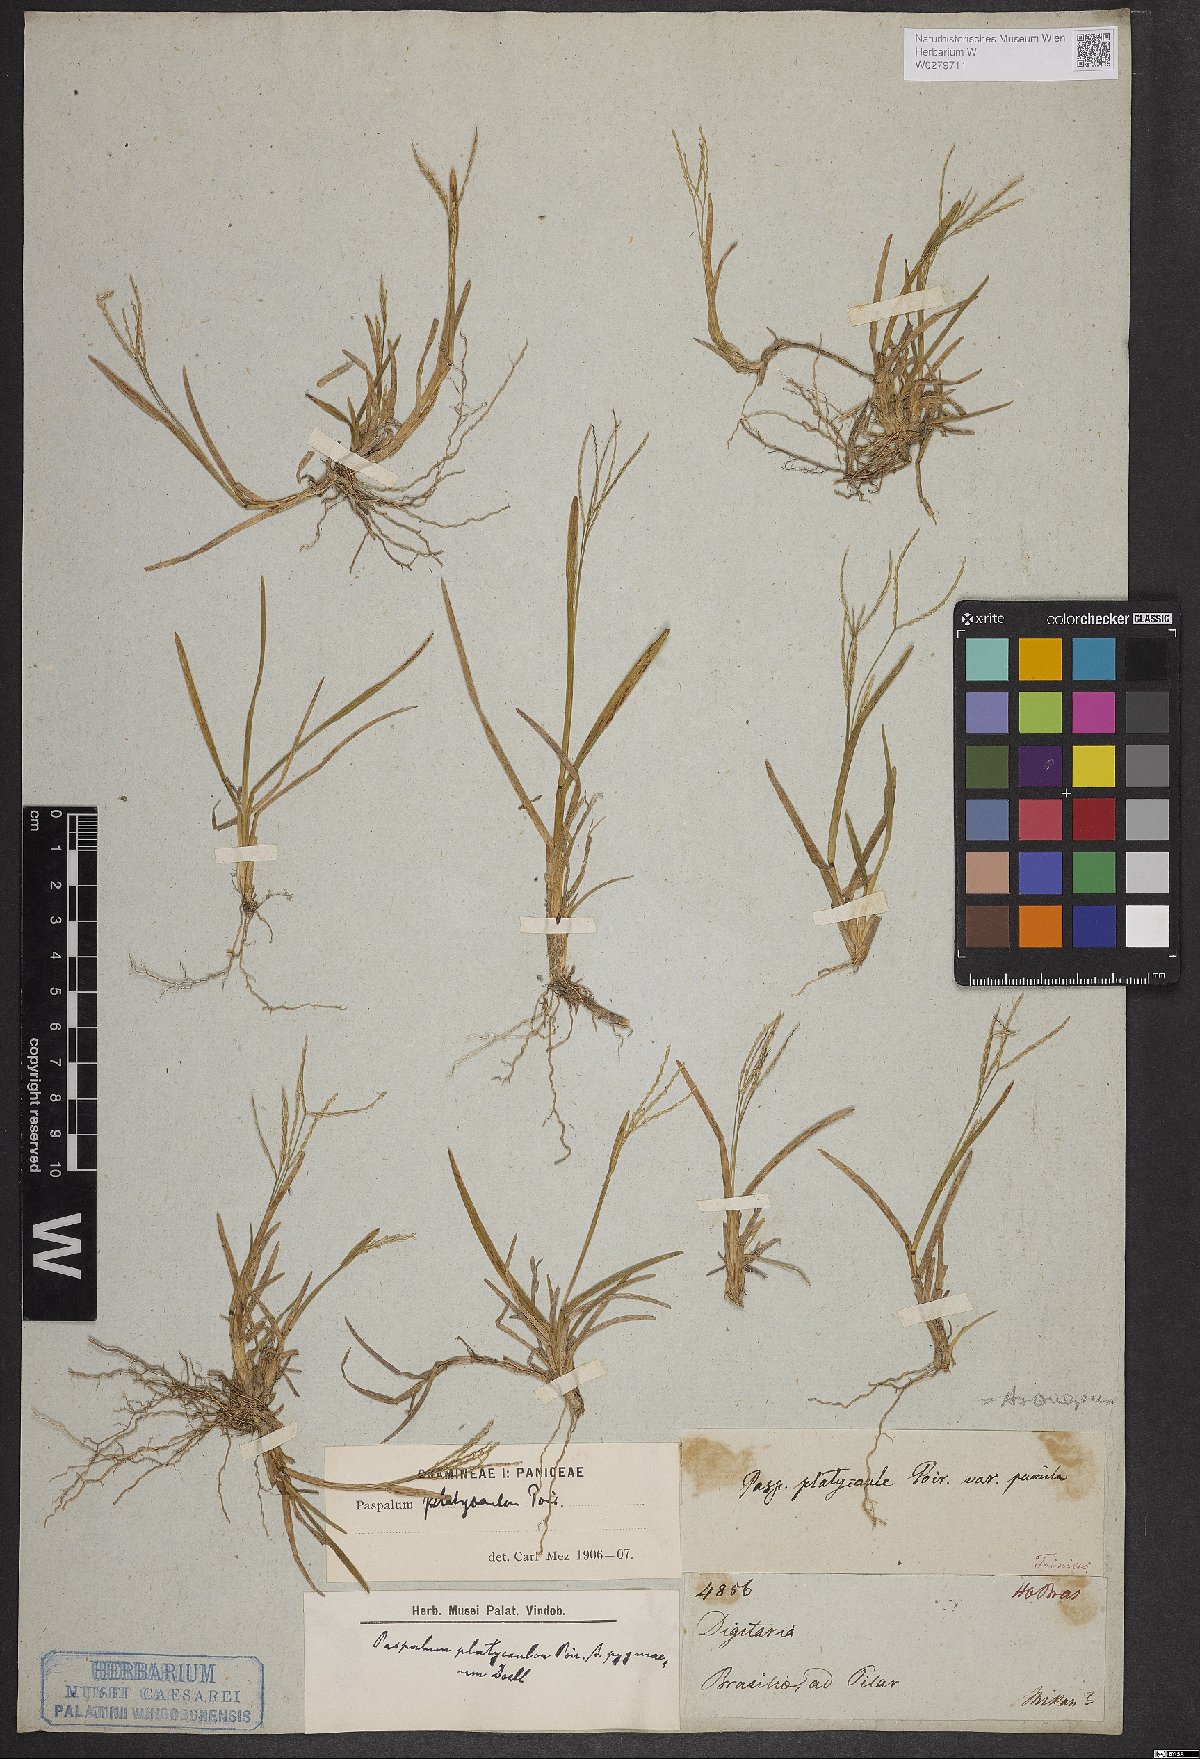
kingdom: Plantae
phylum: Tracheophyta
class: Liliopsida
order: Poales
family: Poaceae
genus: Axonopus
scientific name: Axonopus compressus
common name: American carpet grass
